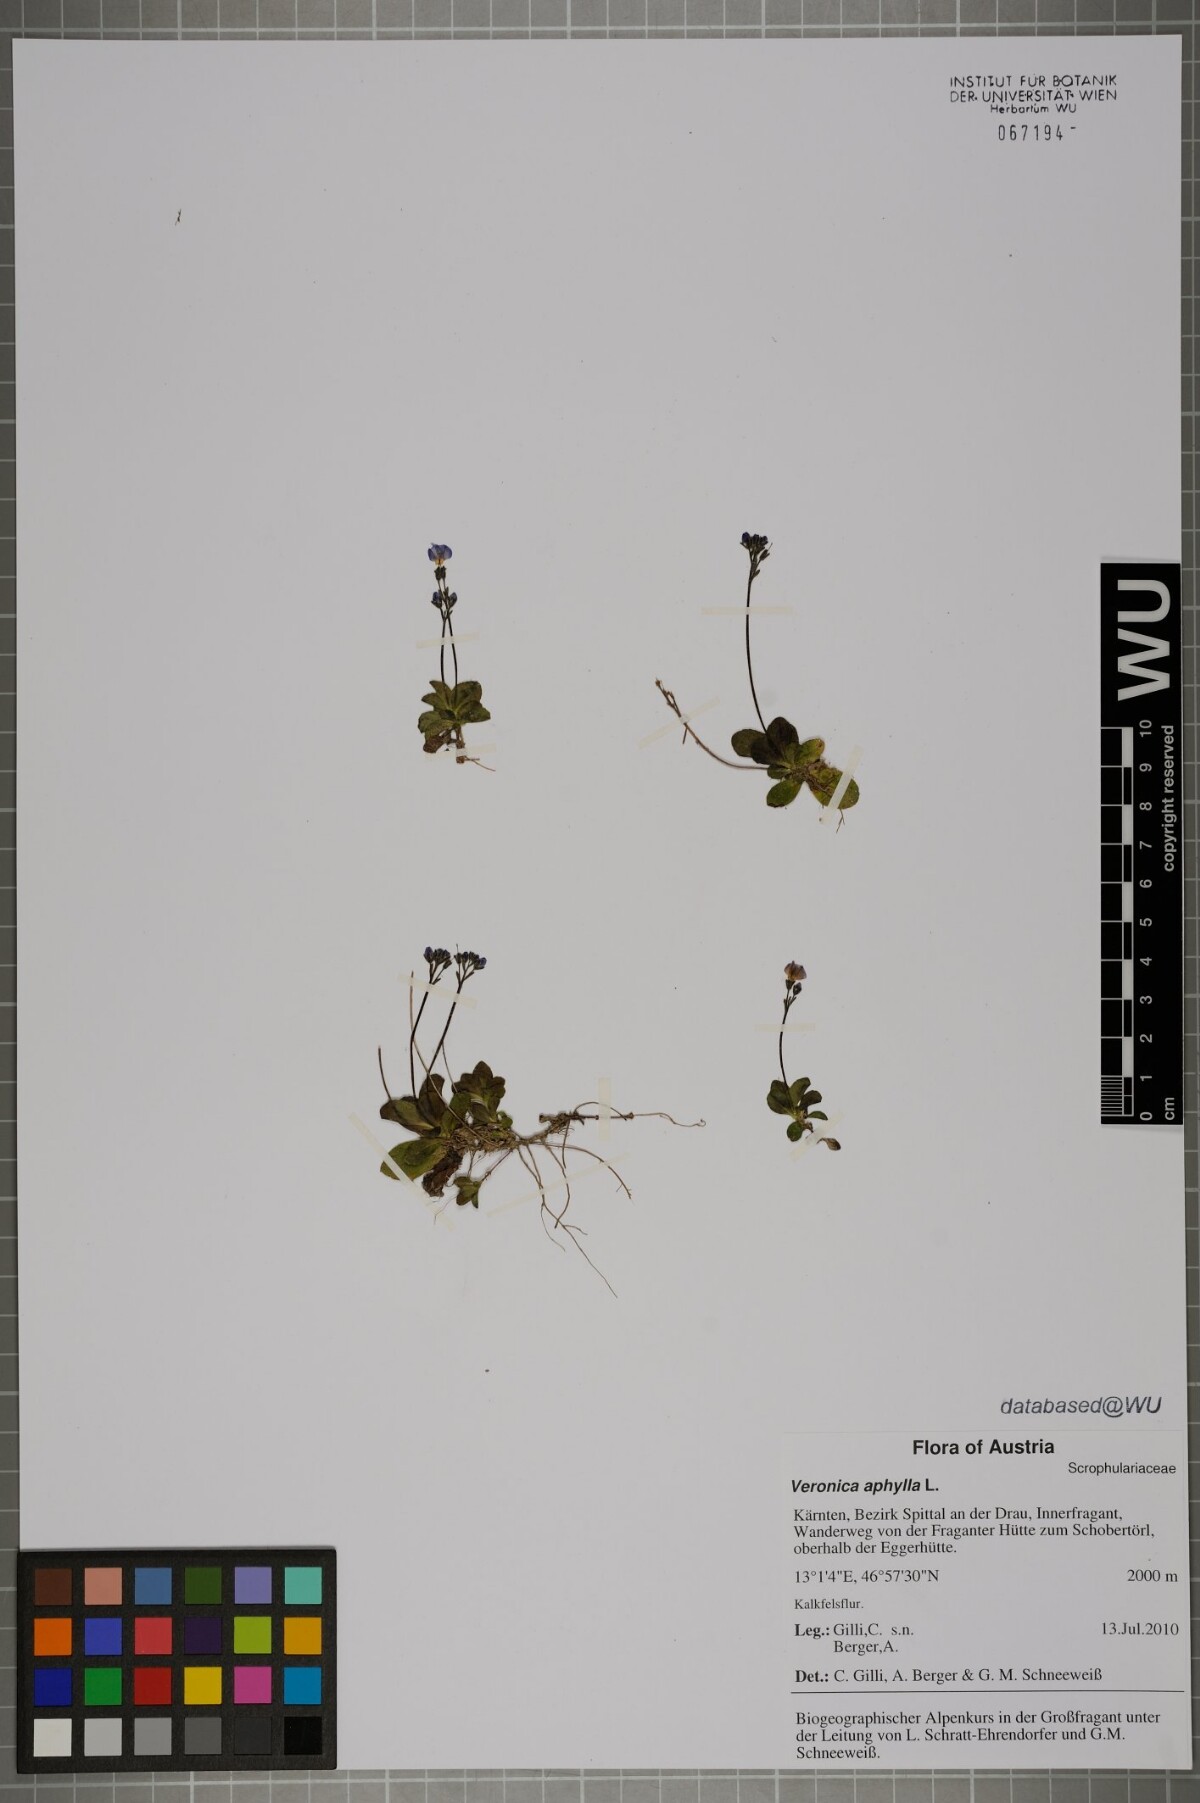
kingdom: Plantae
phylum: Tracheophyta
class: Magnoliopsida
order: Lamiales
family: Plantaginaceae
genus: Veronica
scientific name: Veronica aphylla
